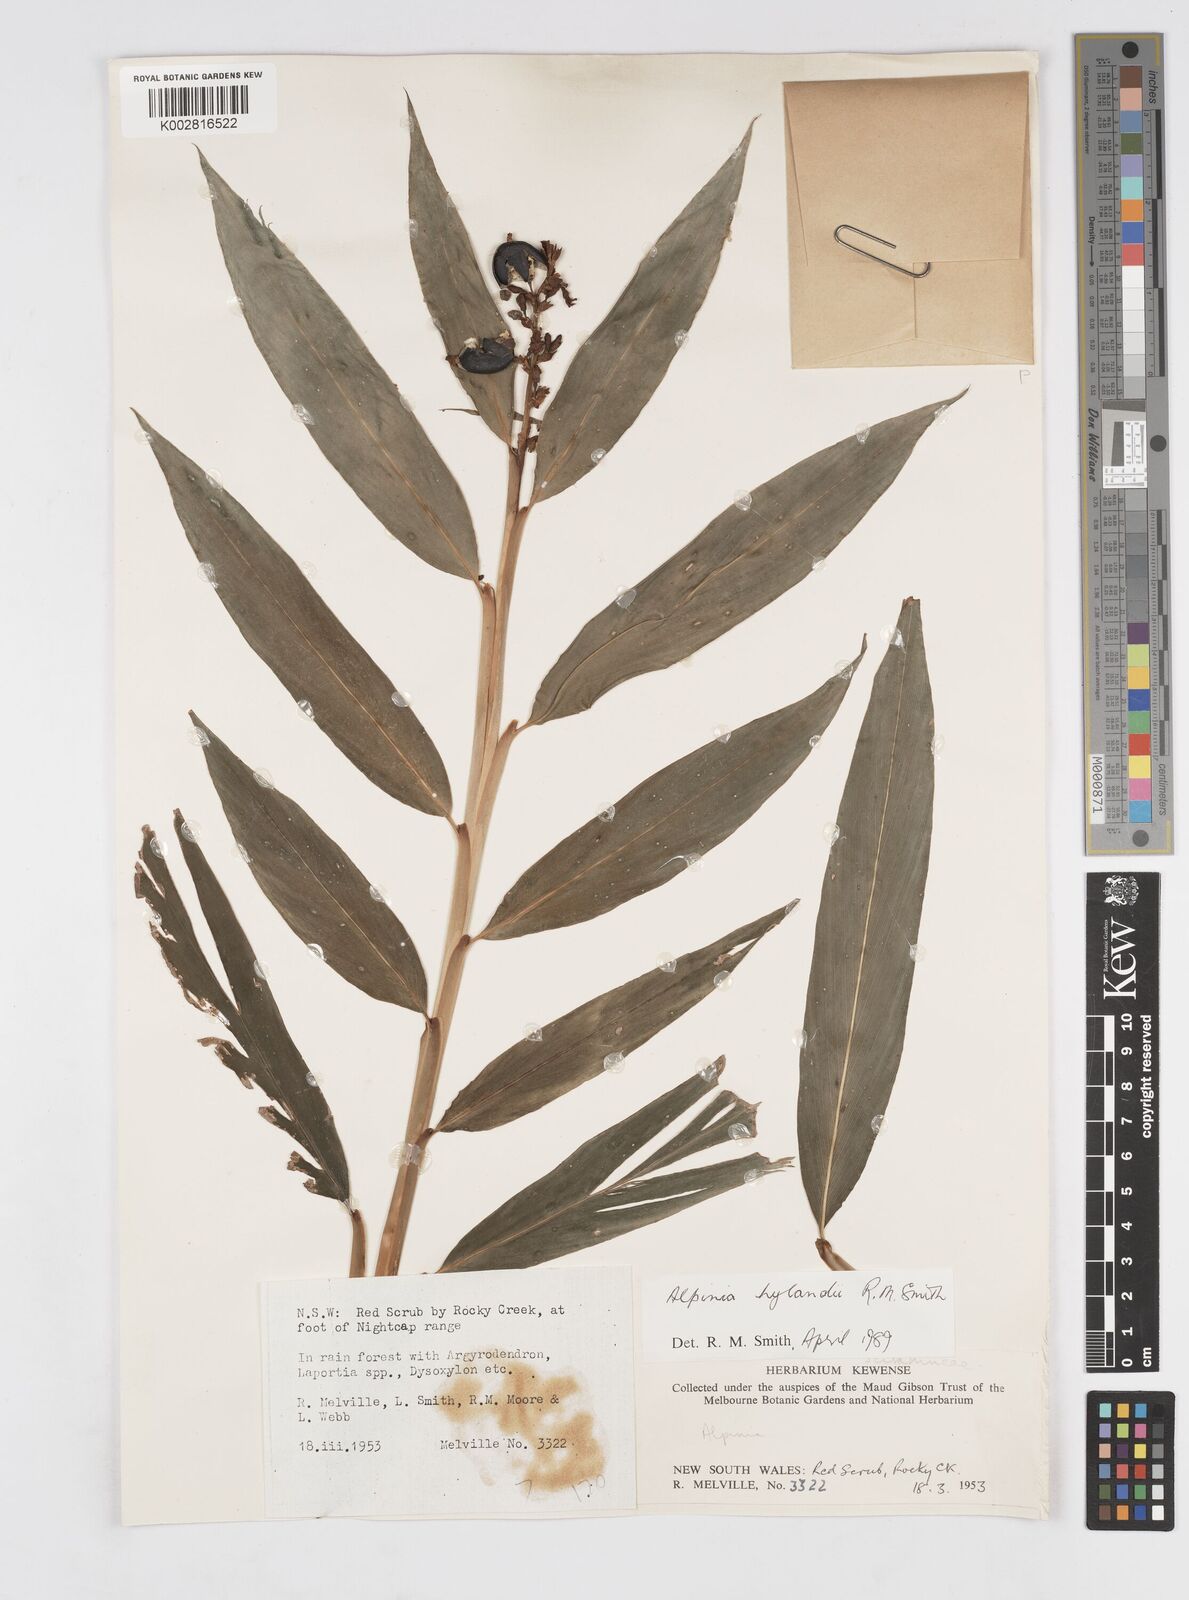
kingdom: Plantae
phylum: Tracheophyta
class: Liliopsida
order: Zingiberales
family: Zingiberaceae
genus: Alpinia
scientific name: Alpinia hylandii
